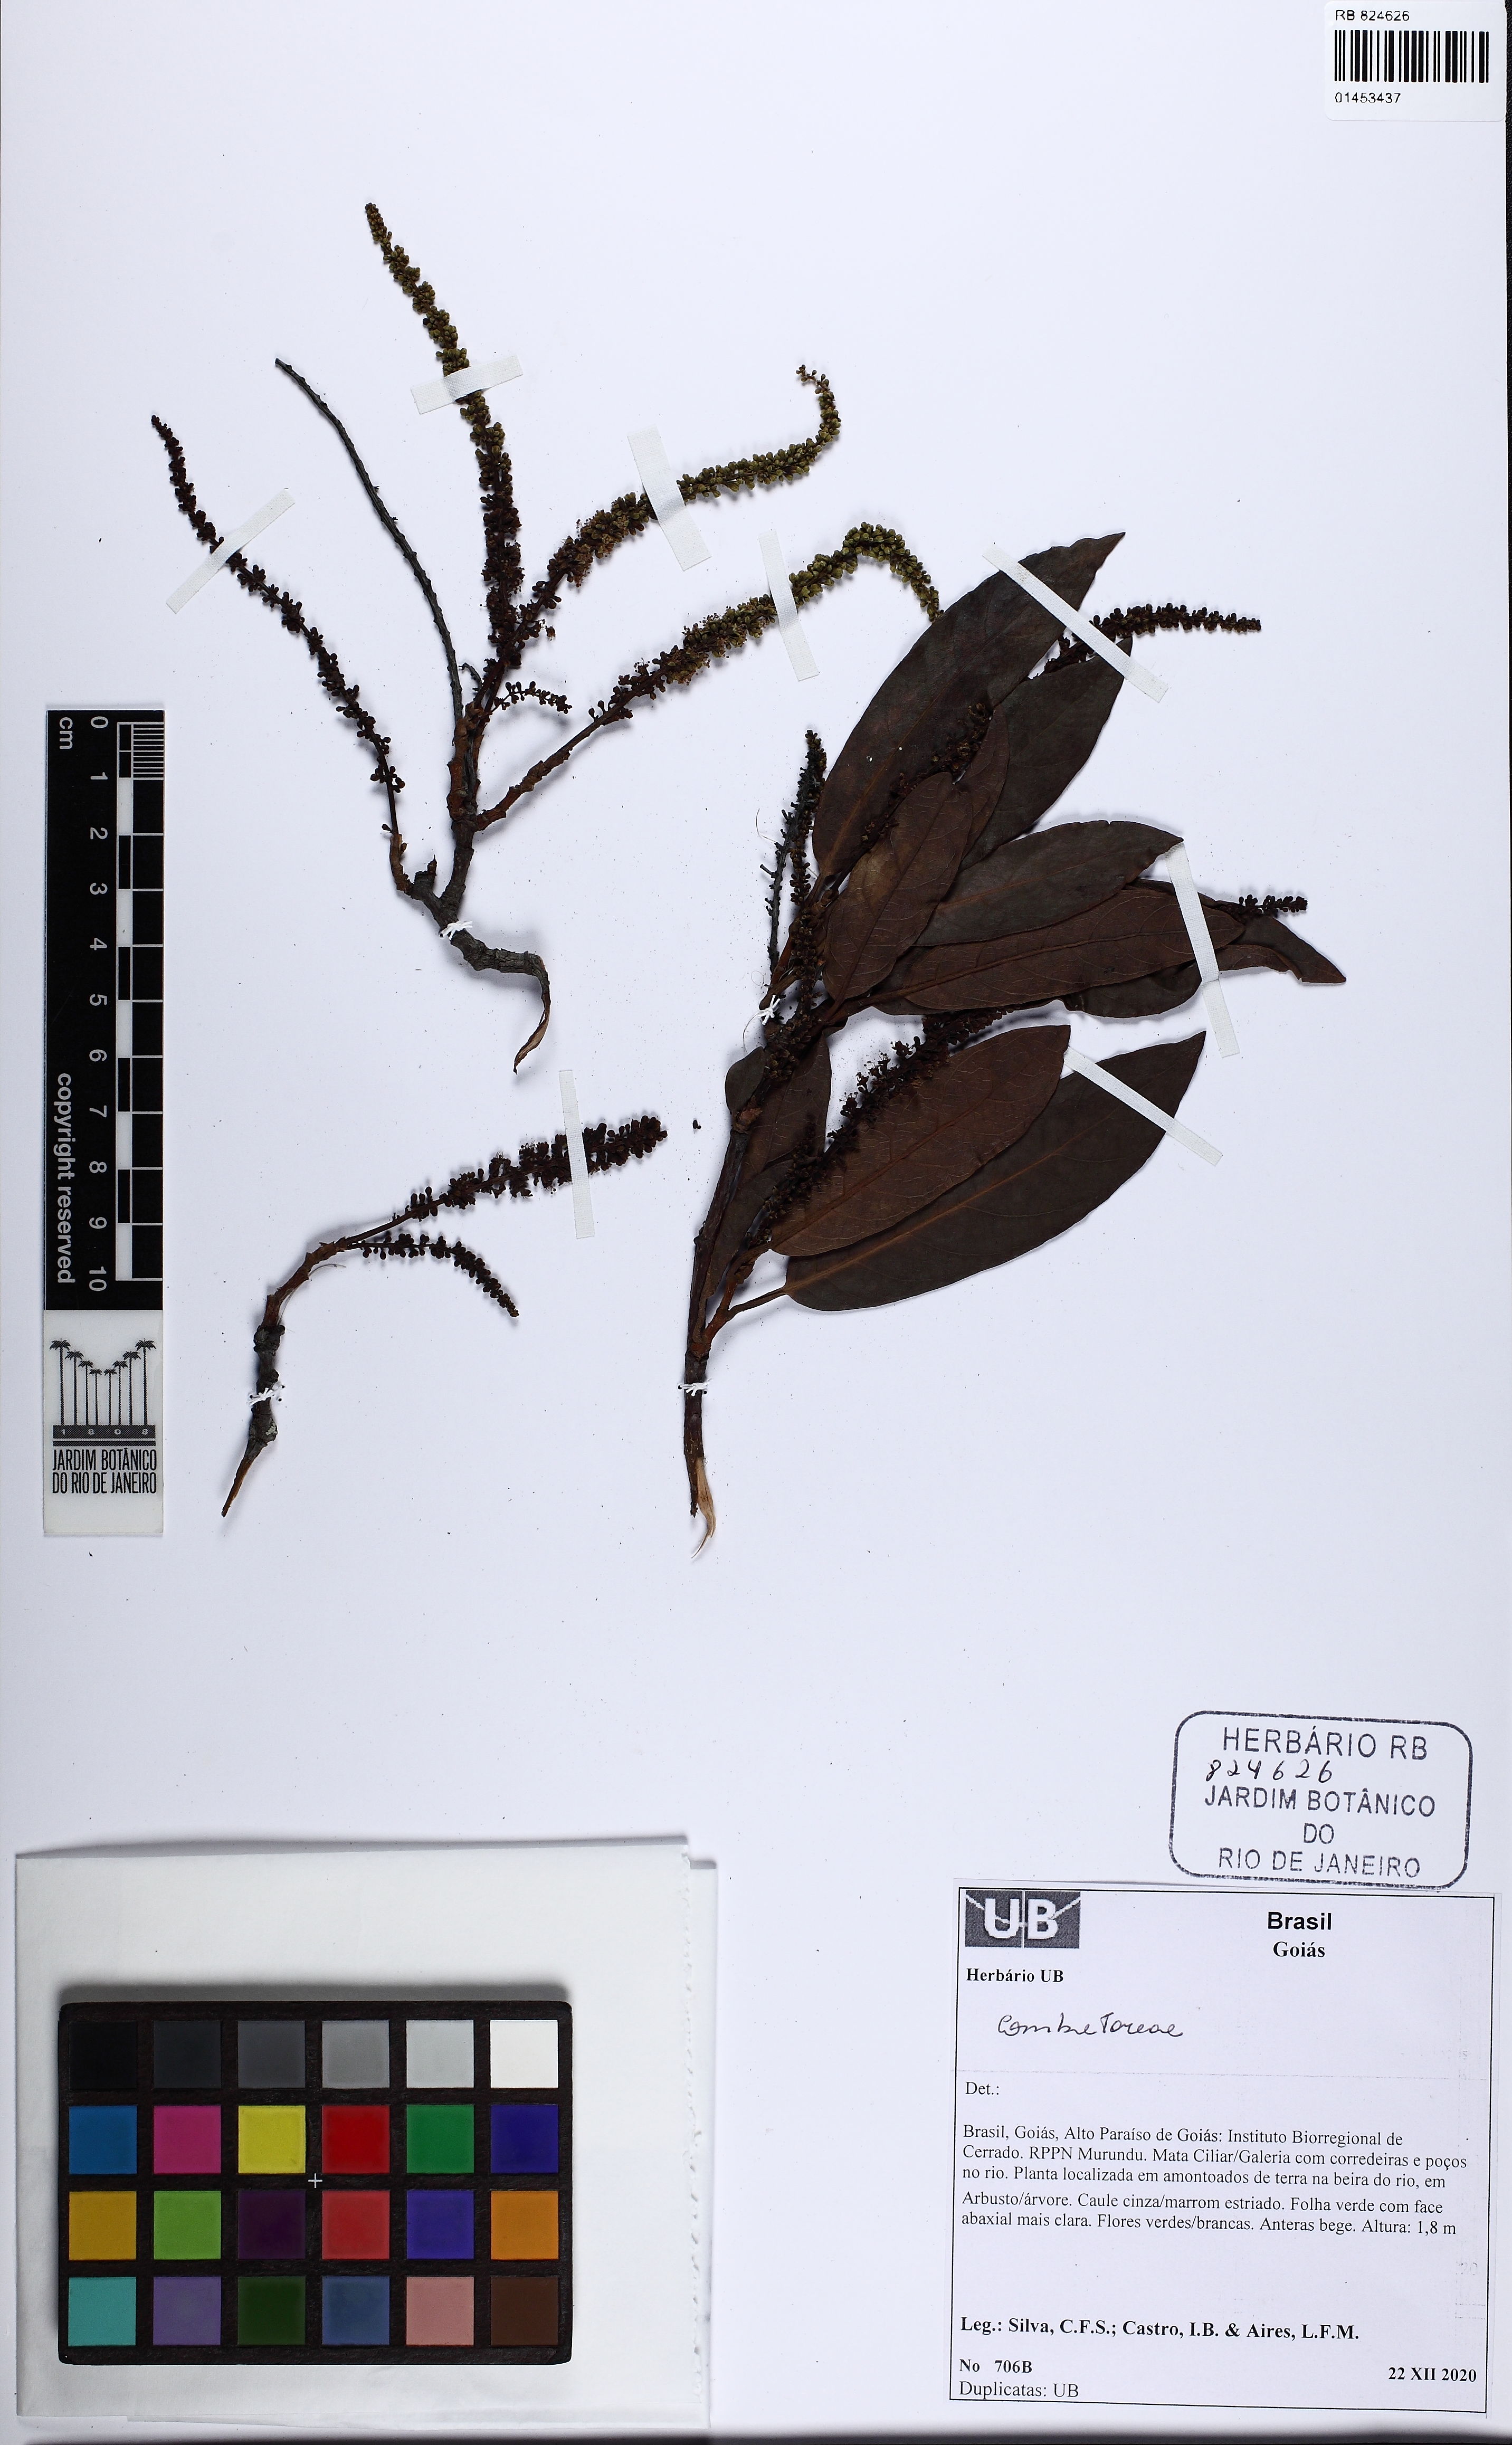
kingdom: Plantae
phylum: Tracheophyta
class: Magnoliopsida
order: Myrtales
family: Combretaceae
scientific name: Combretaceae
